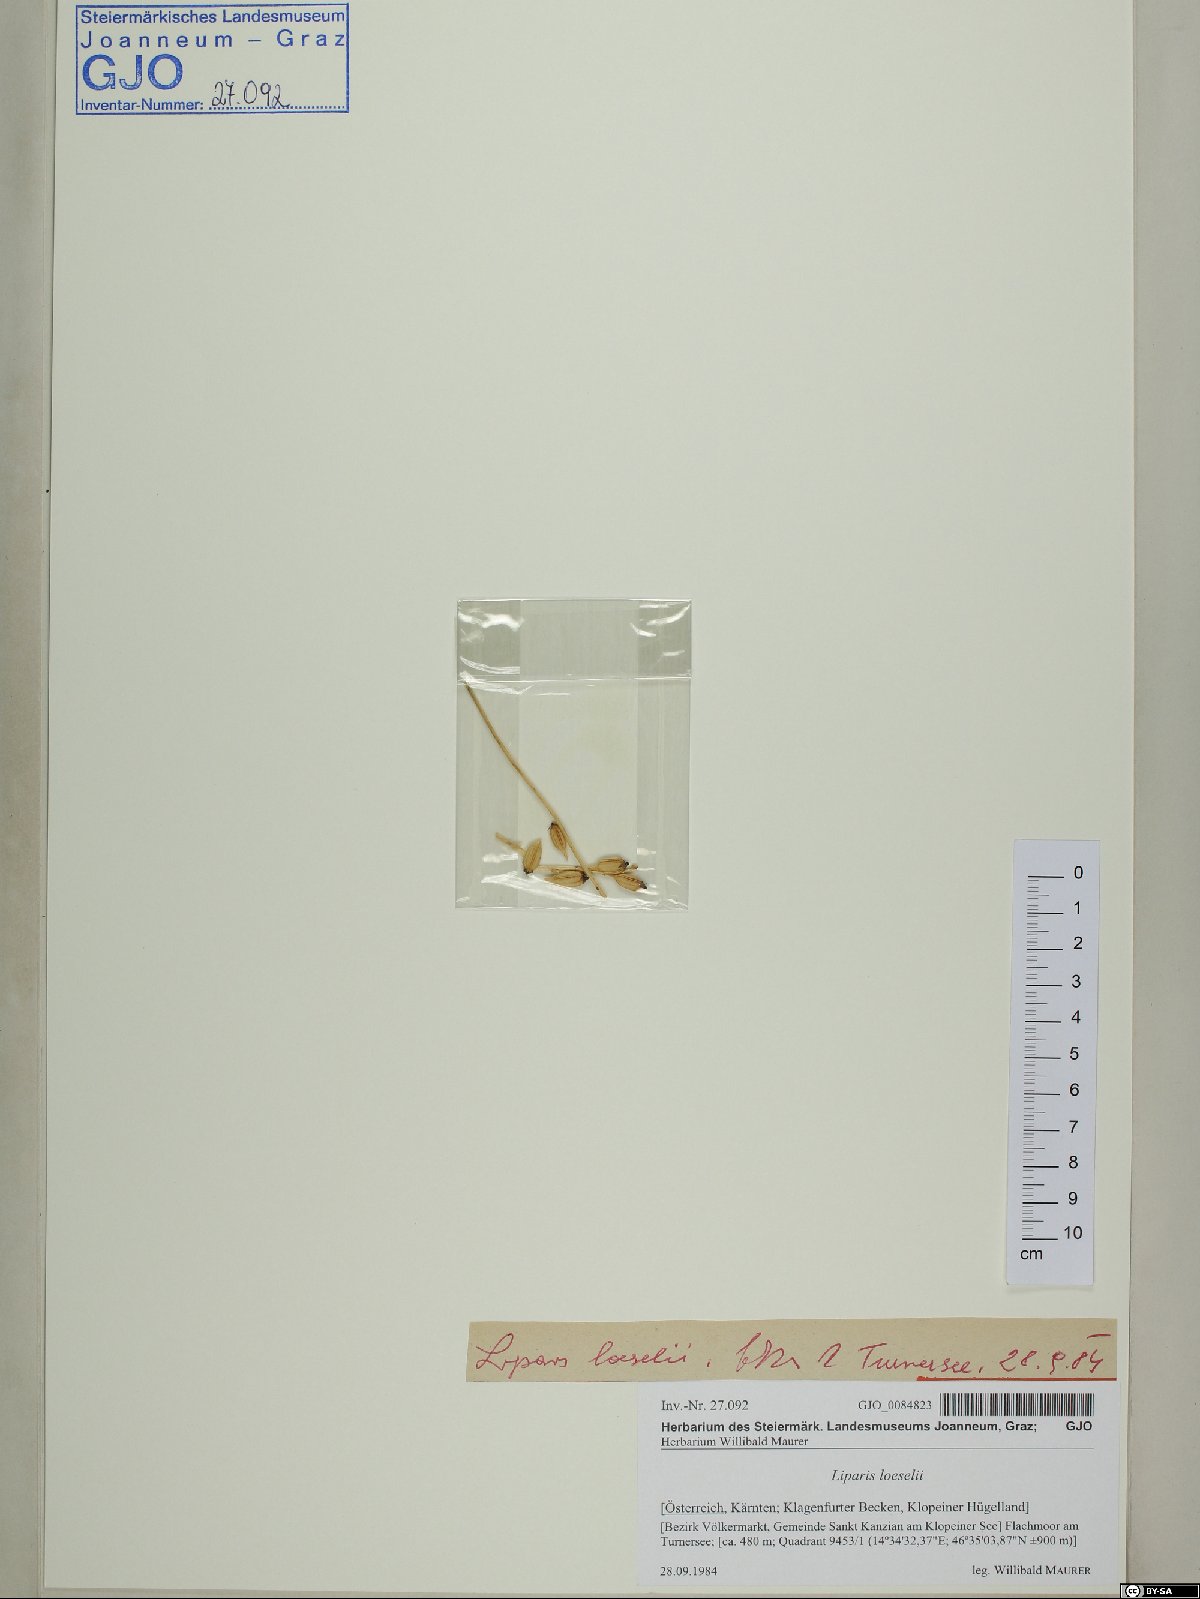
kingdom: Animalia
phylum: Arthropoda
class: Insecta
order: Coleoptera
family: Curculionidae
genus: Liparis
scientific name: Liparis loeselii
